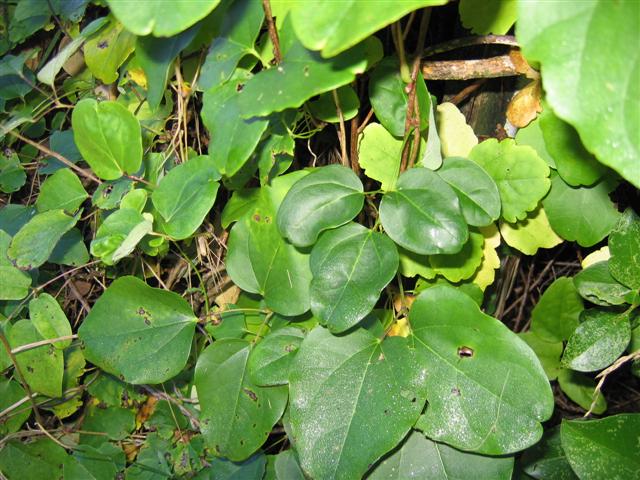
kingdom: Plantae
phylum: Tracheophyta
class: Magnoliopsida
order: Ranunculales
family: Lardizabalaceae
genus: Akebia
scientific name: Akebia trifoliata
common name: Chocolate-vine
